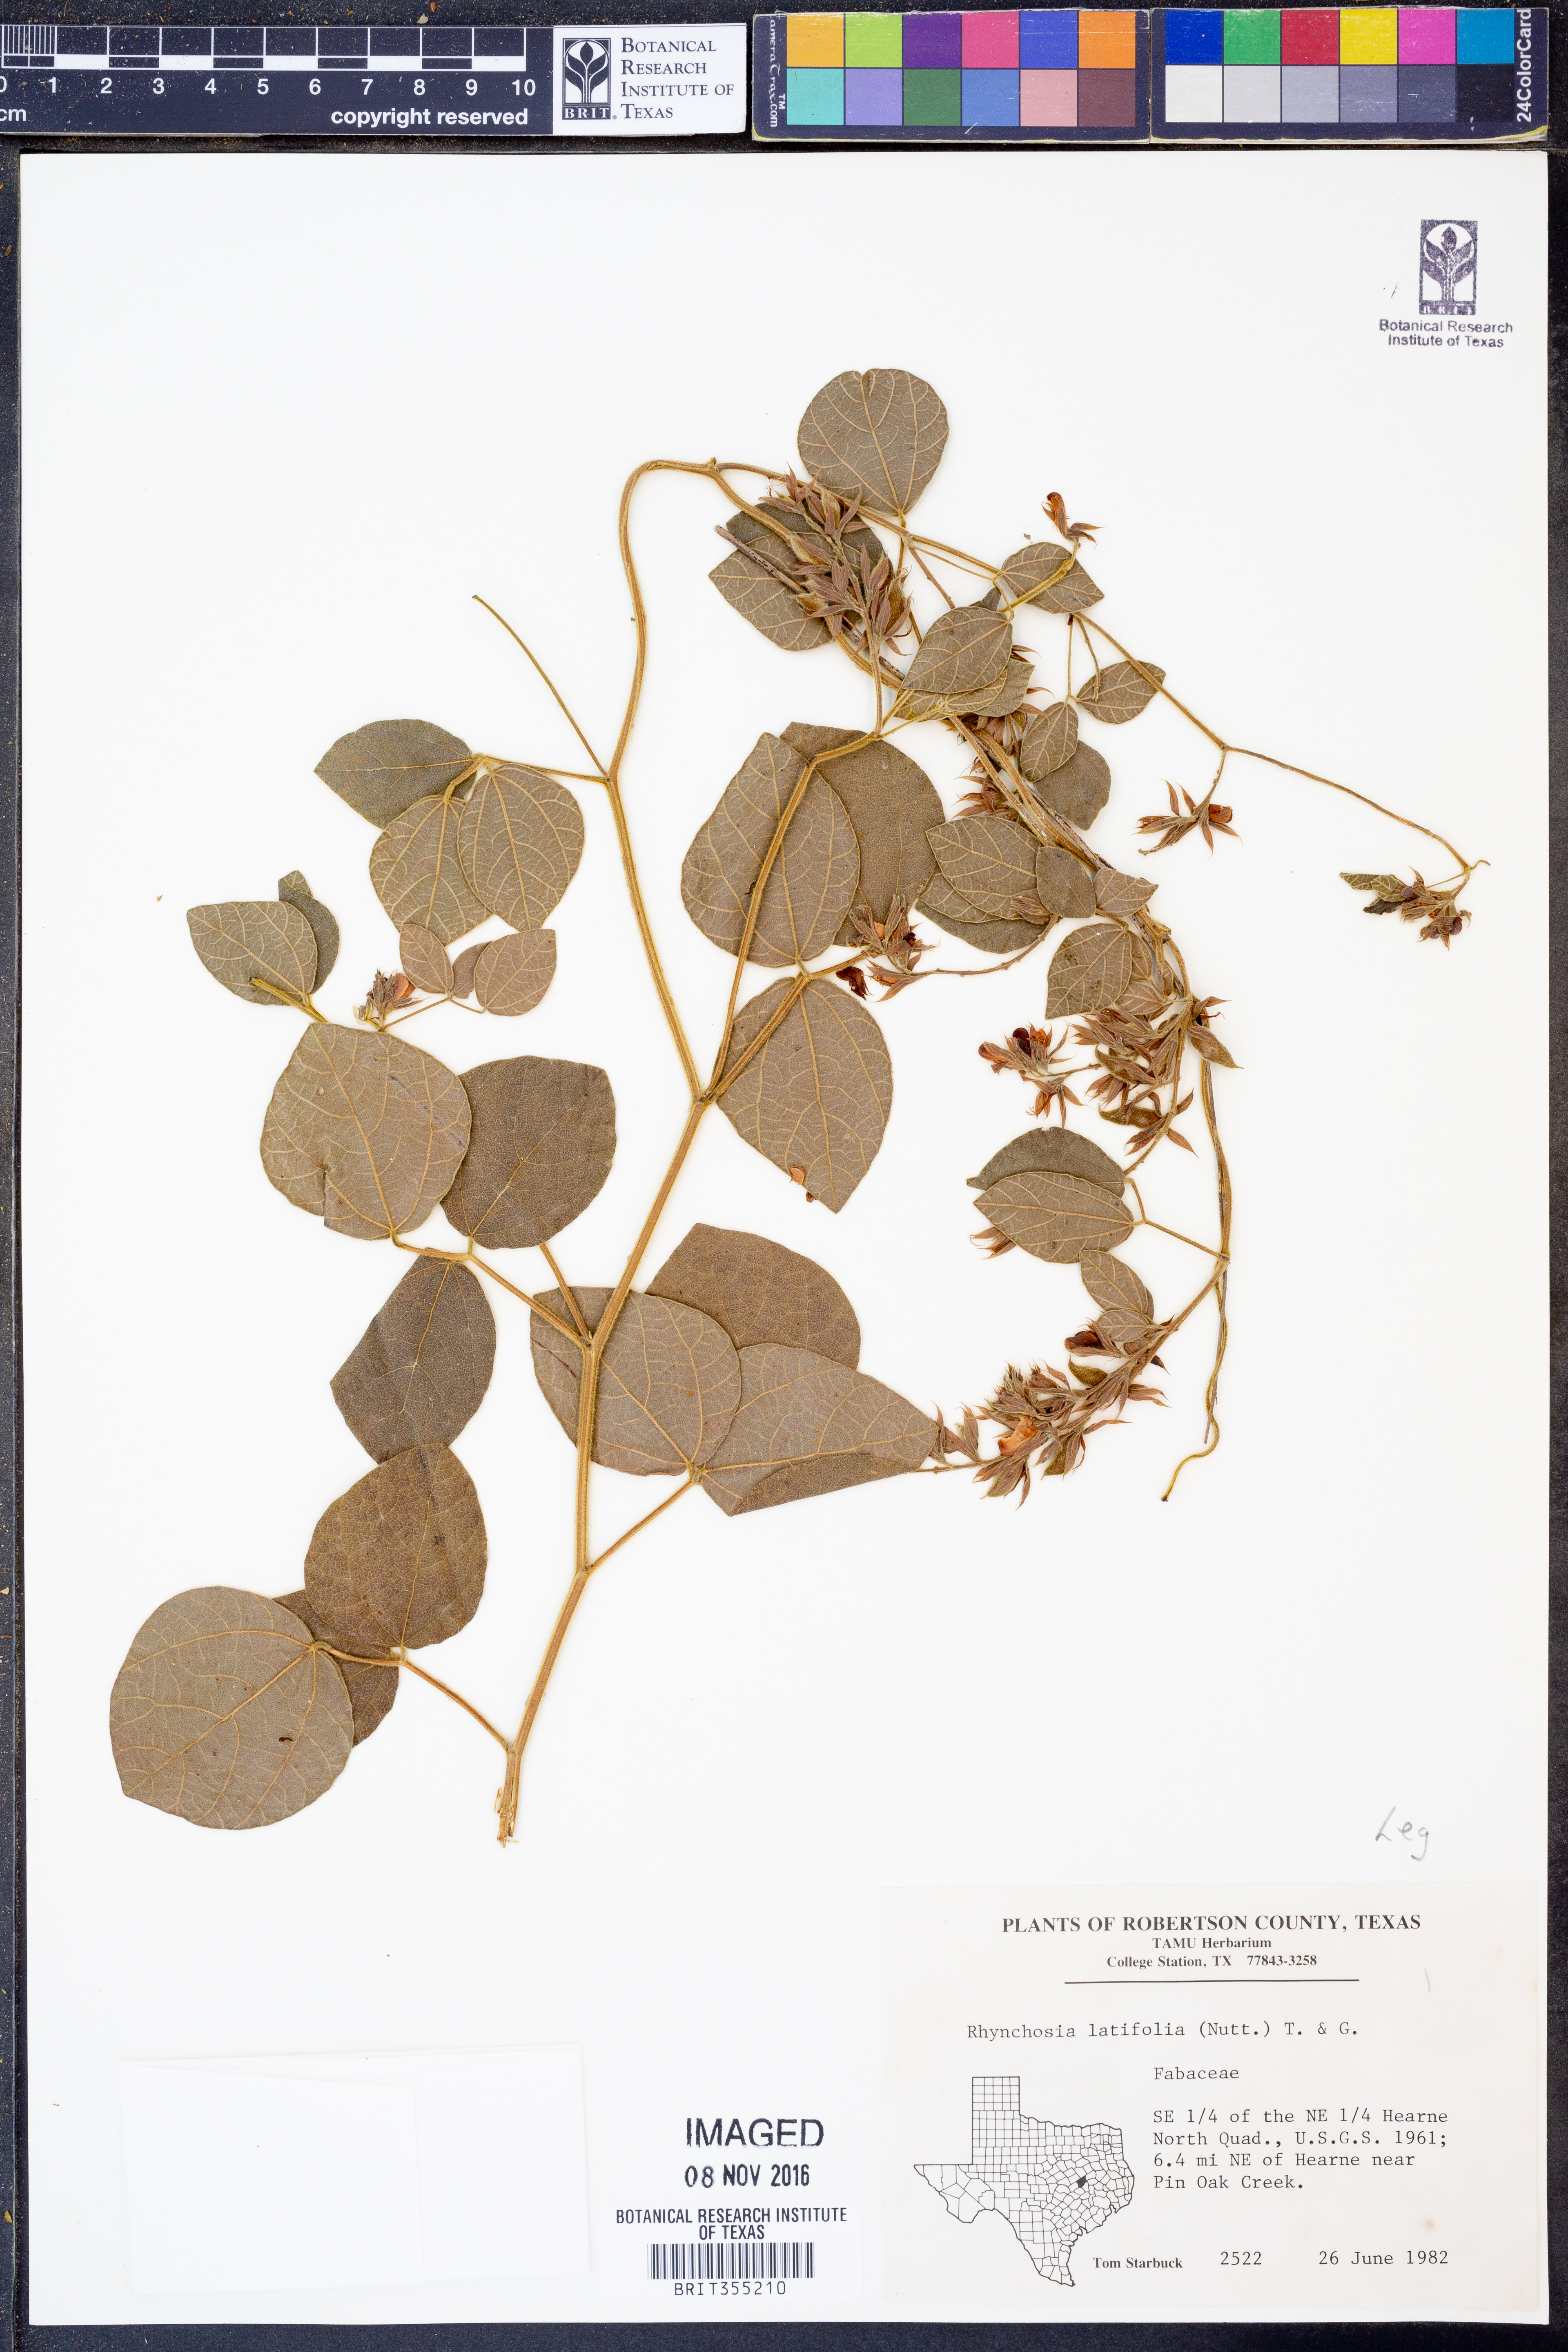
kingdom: Plantae
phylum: Tracheophyta
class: Magnoliopsida
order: Fabales
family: Fabaceae
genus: Rhynchosia
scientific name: Rhynchosia latifolia
